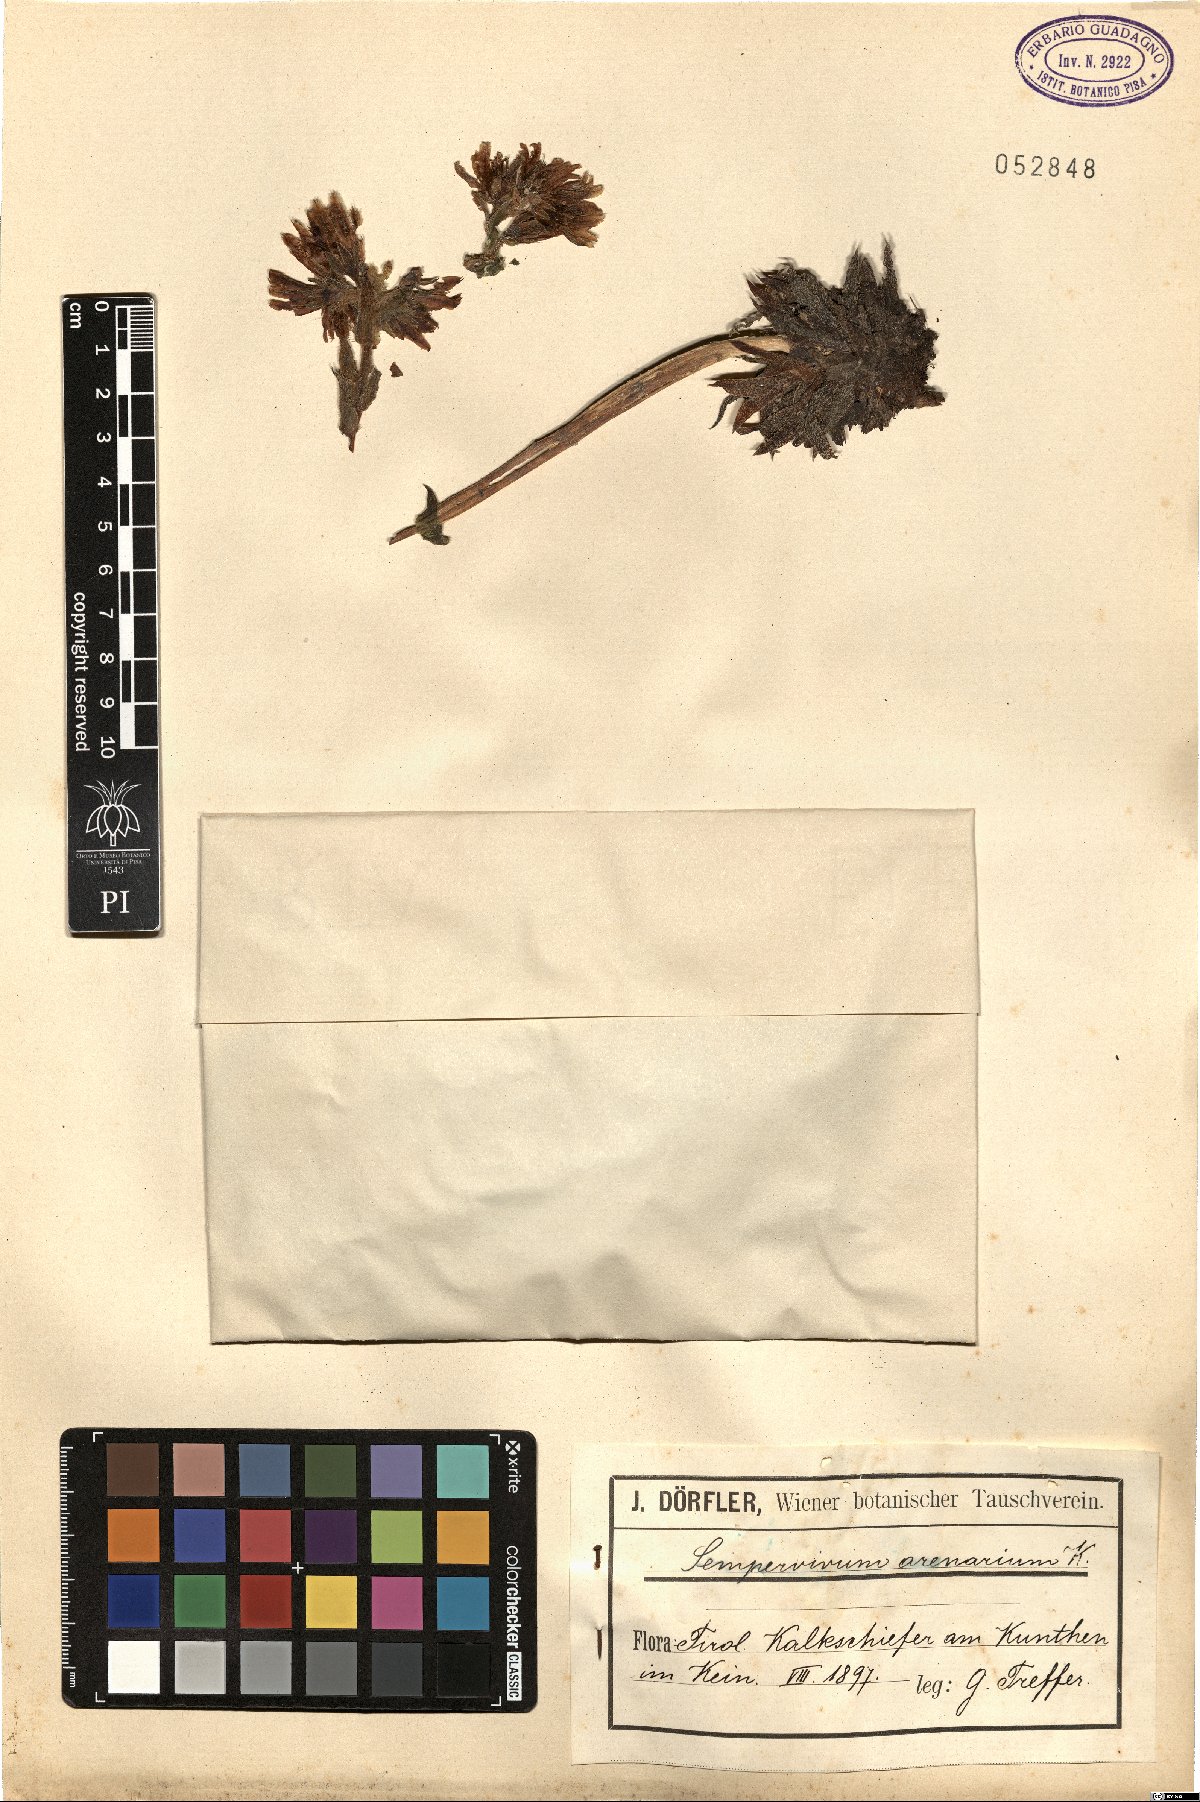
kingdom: Plantae
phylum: Tracheophyta
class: Magnoliopsida
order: Saxifragales
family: Crassulaceae
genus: Sempervivum
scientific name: Sempervivum globiferum
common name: Rolling hen-and-chicks
